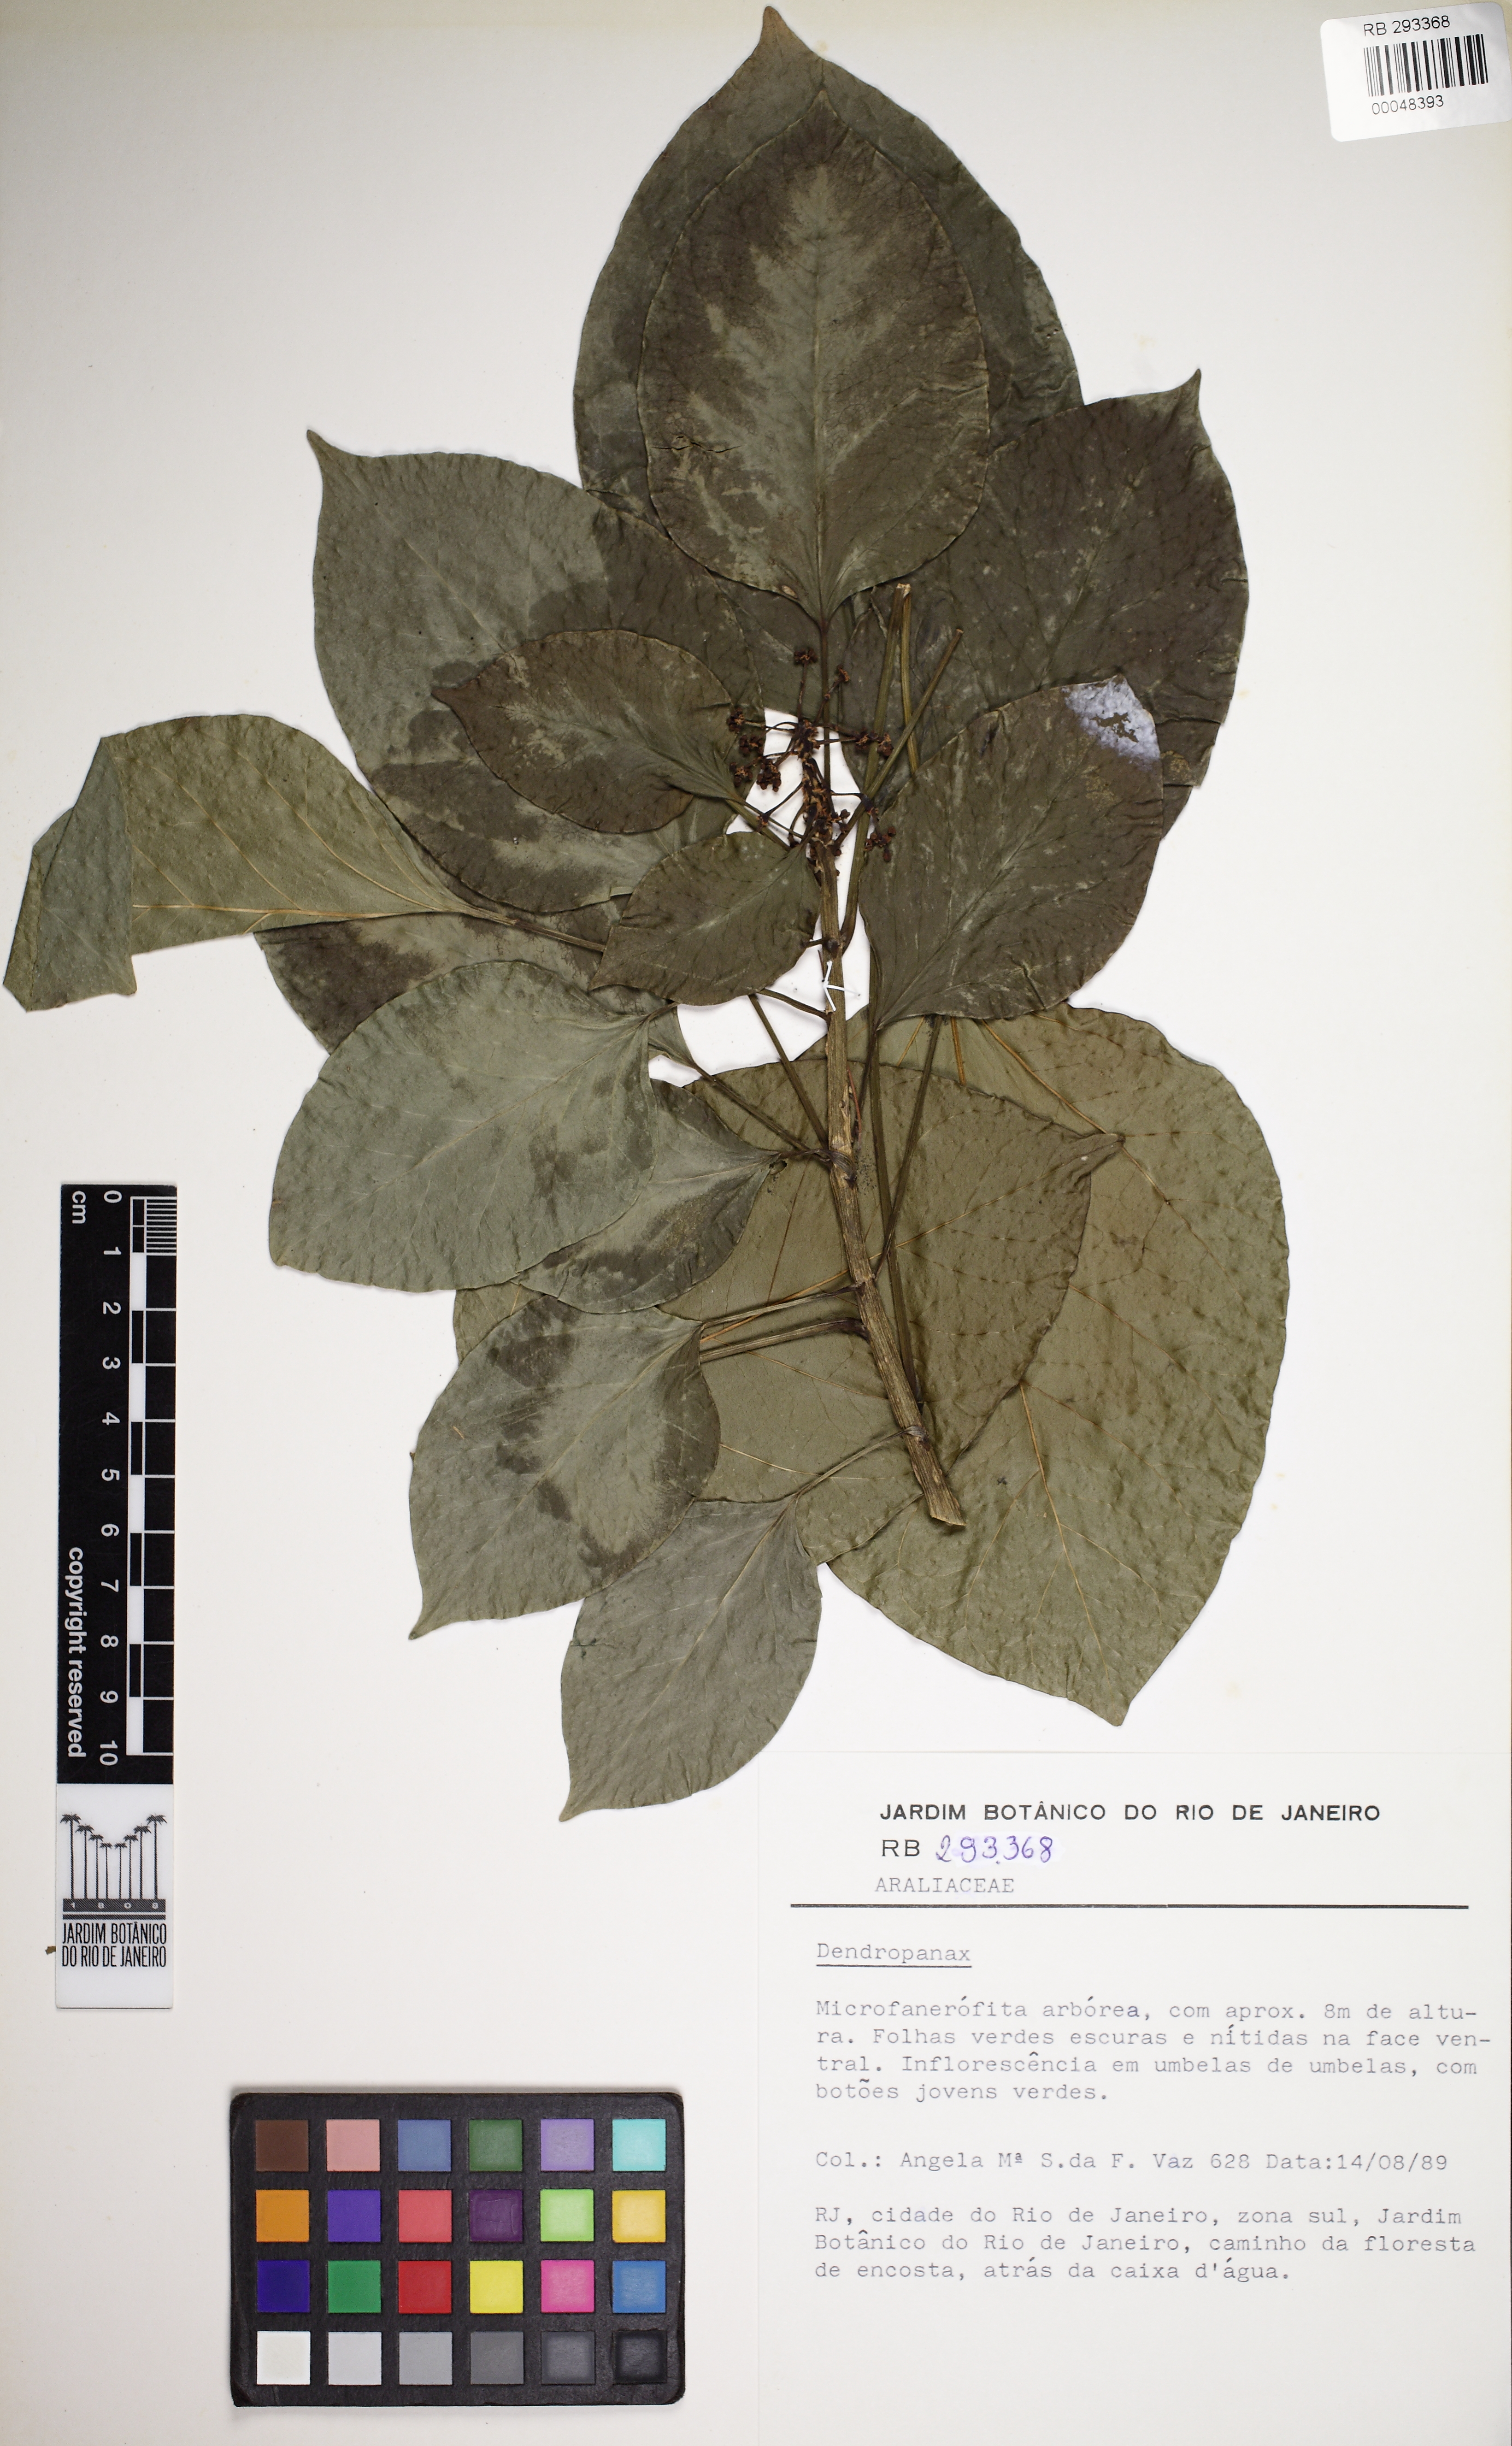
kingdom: Plantae
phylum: Tracheophyta
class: Magnoliopsida
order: Apiales
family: Araliaceae
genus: Dendropanax
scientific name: Dendropanax
